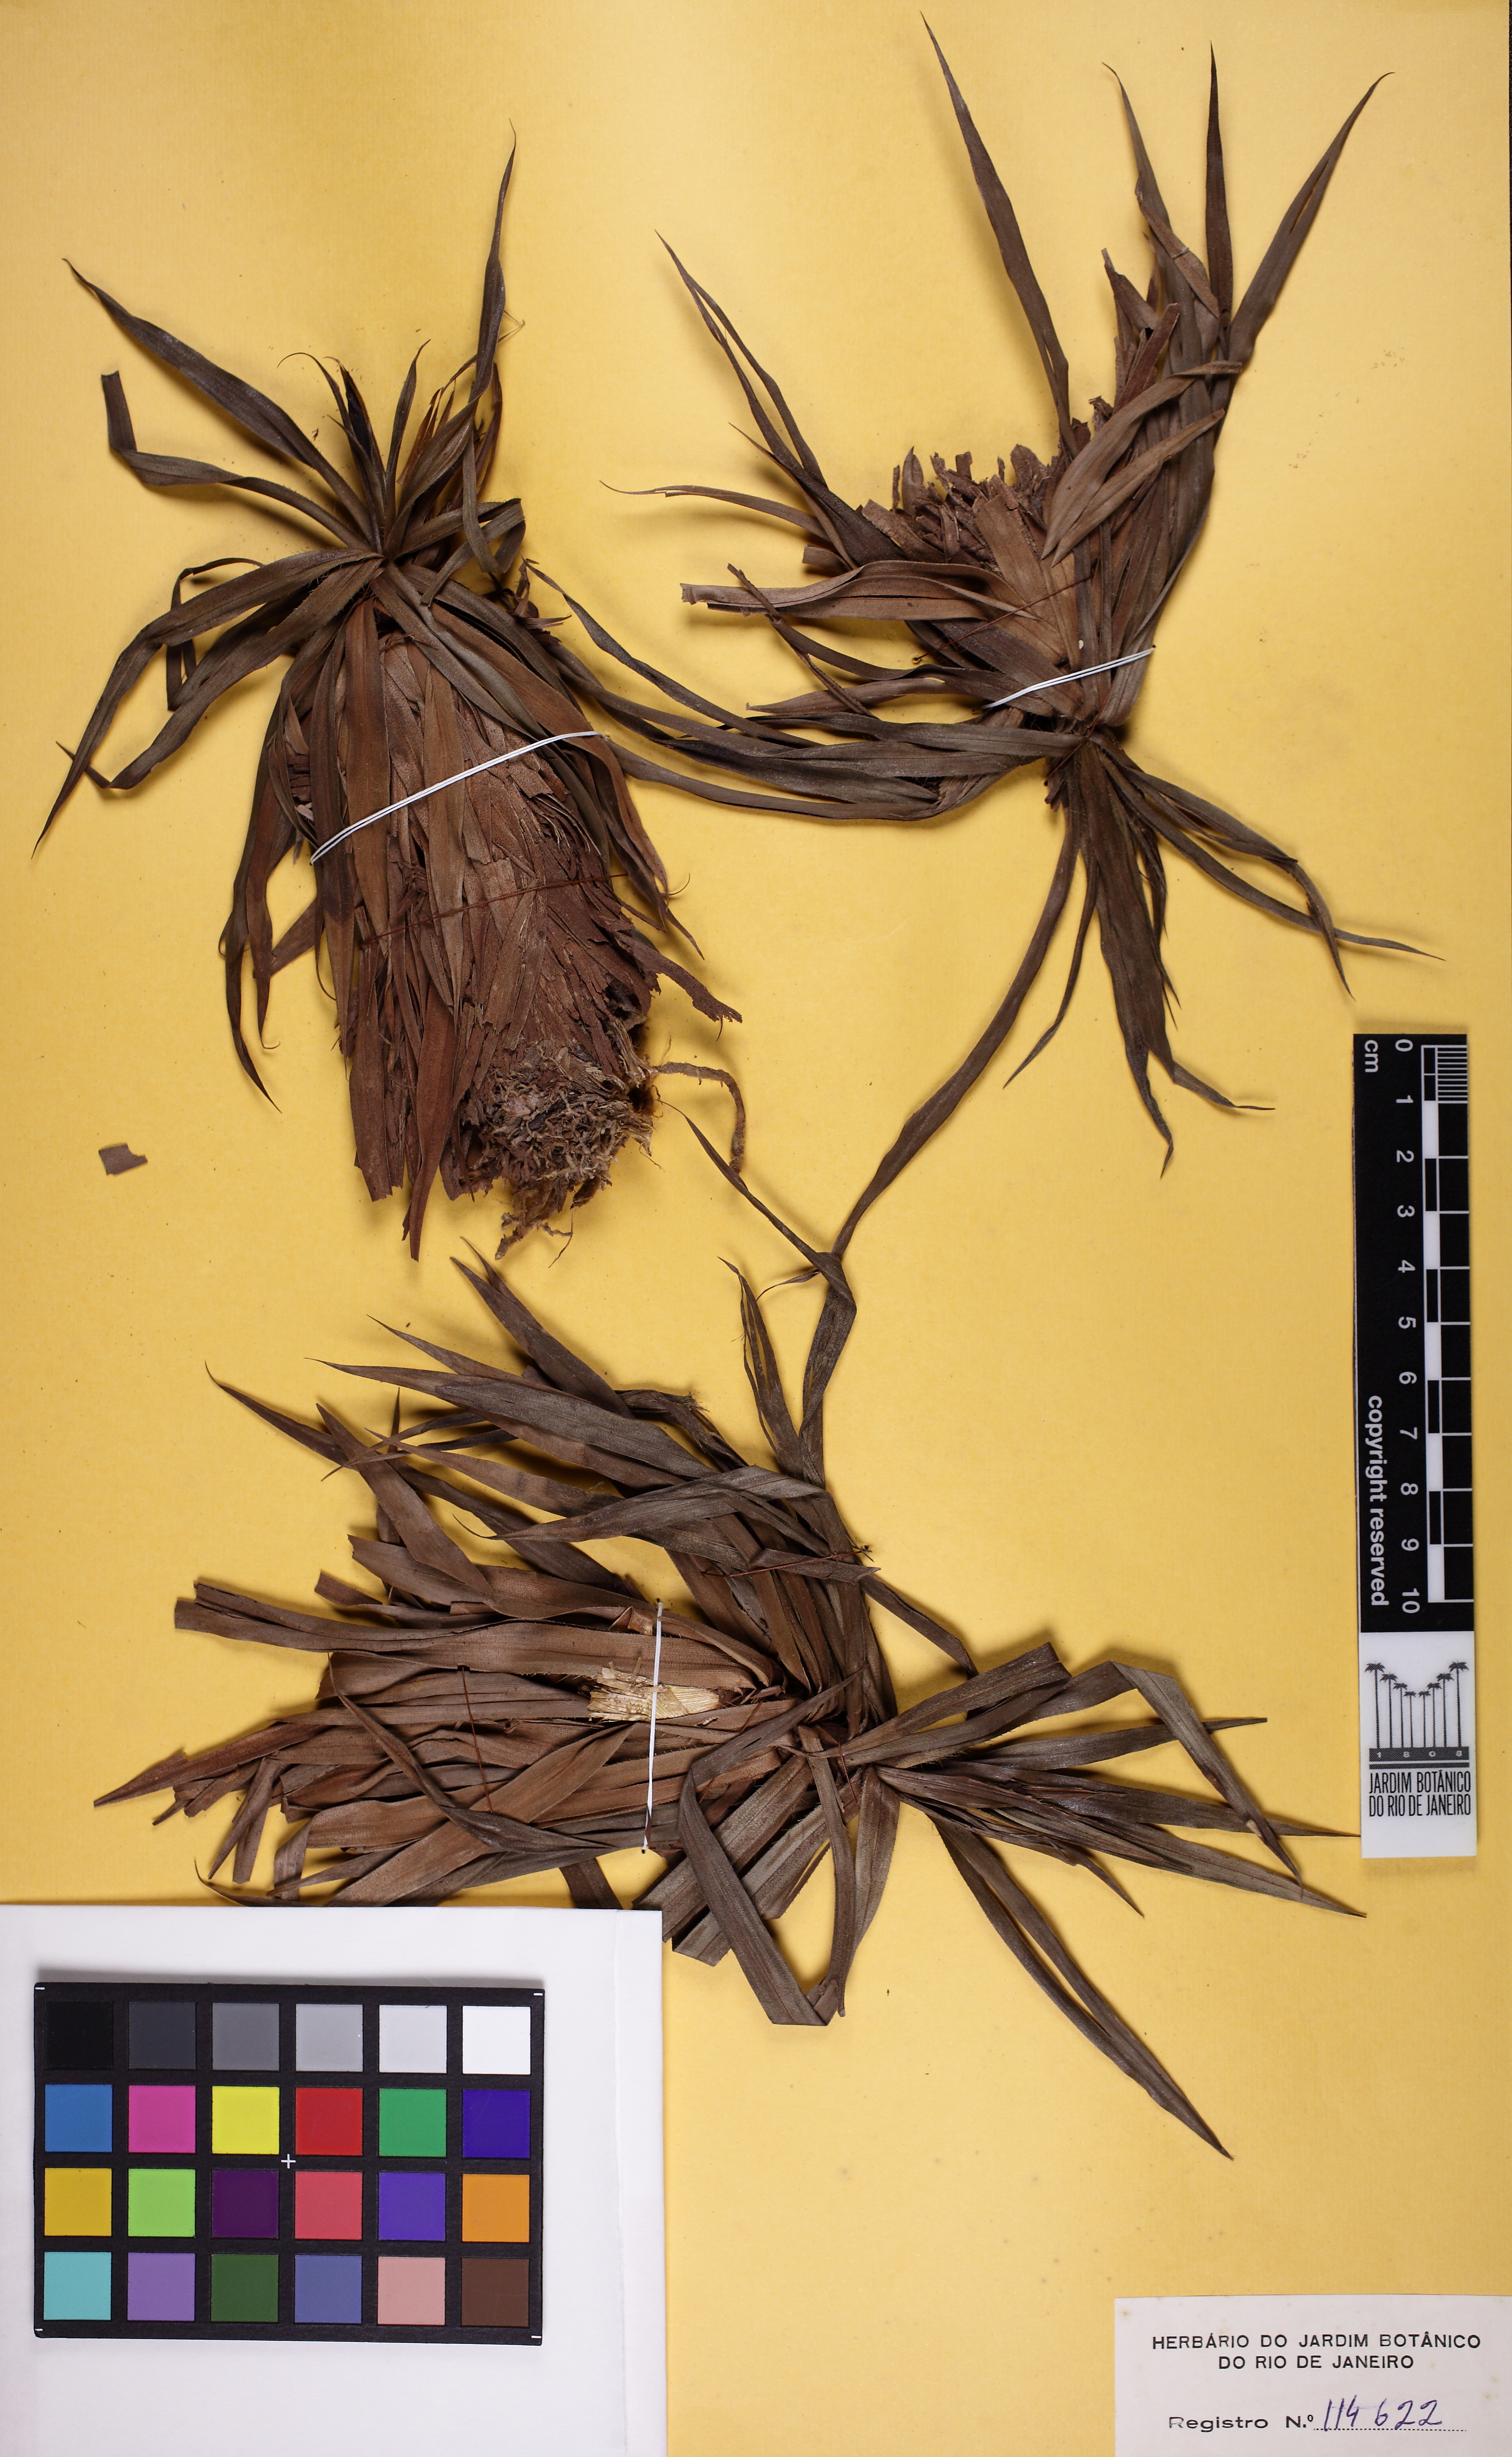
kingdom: Plantae
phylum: Tracheophyta
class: Liliopsida
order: Pandanales
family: Velloziaceae
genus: Barbacenia
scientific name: Barbacenia gentianoides
